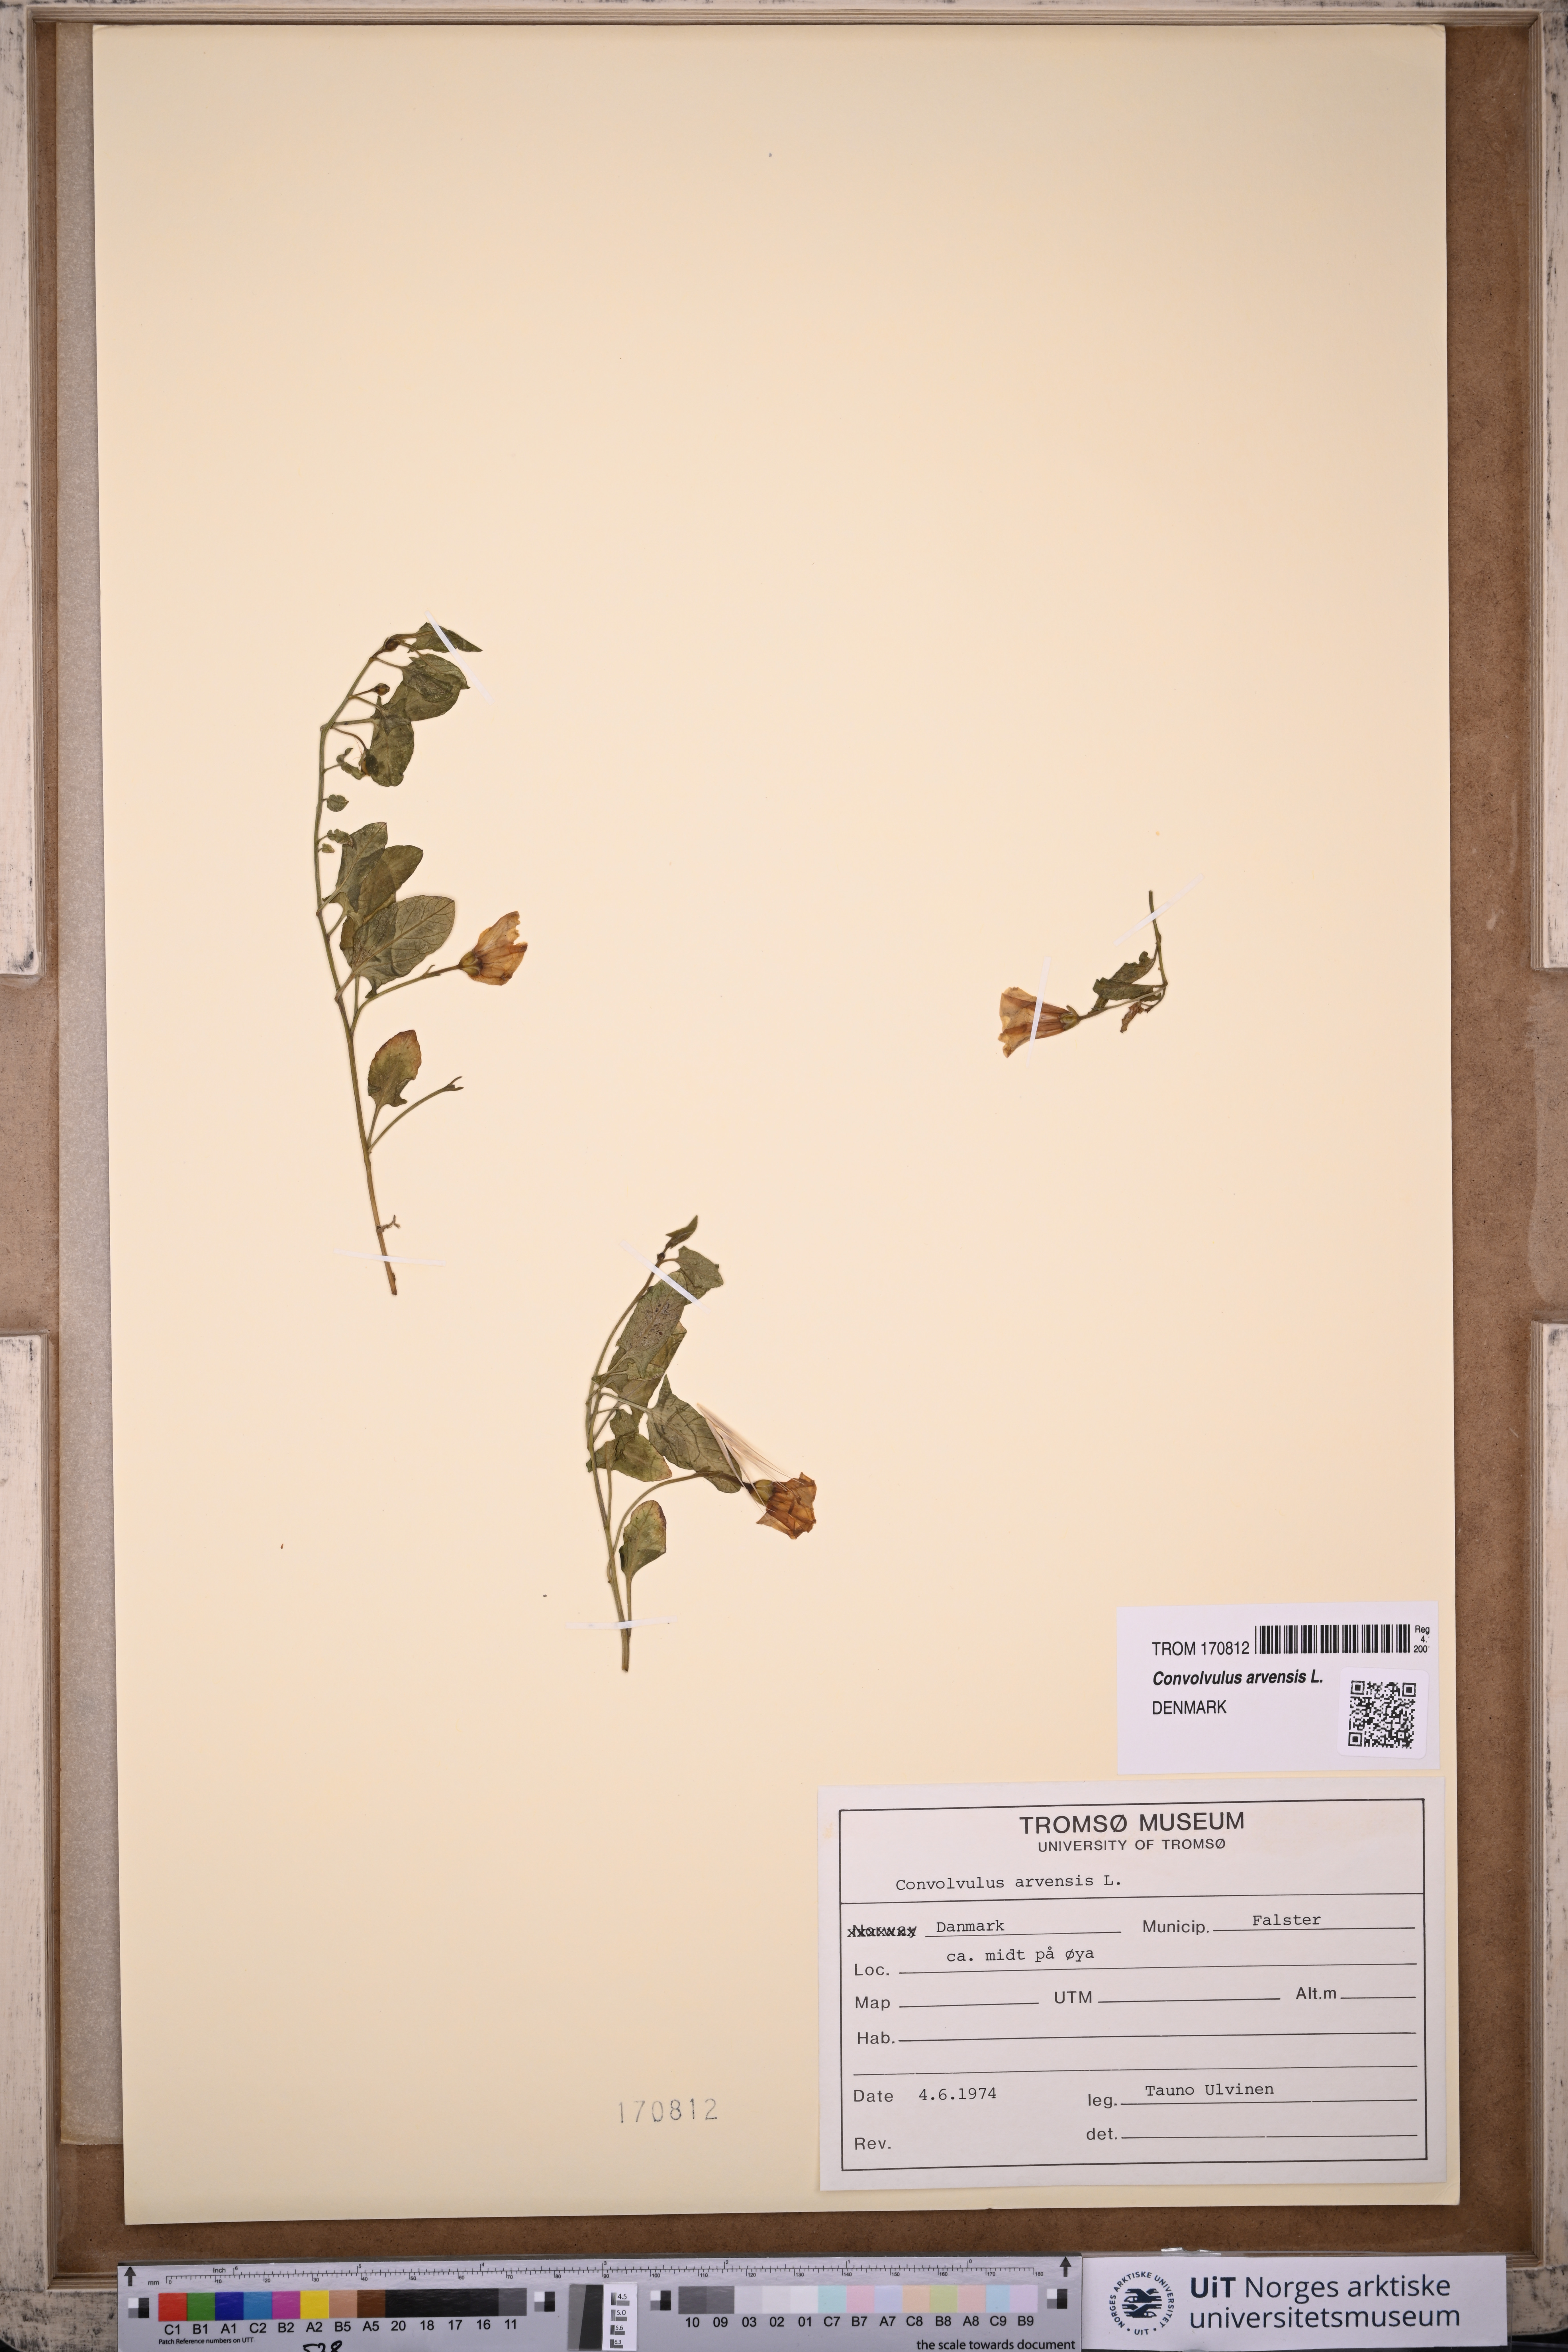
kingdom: Plantae
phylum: Tracheophyta
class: Magnoliopsida
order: Solanales
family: Convolvulaceae
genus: Convolvulus
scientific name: Convolvulus arvensis
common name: Field bindweed
